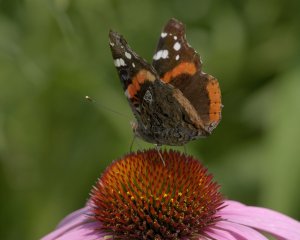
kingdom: Animalia
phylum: Arthropoda
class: Insecta
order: Lepidoptera
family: Nymphalidae
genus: Vanessa
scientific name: Vanessa atalanta
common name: Red Admiral
